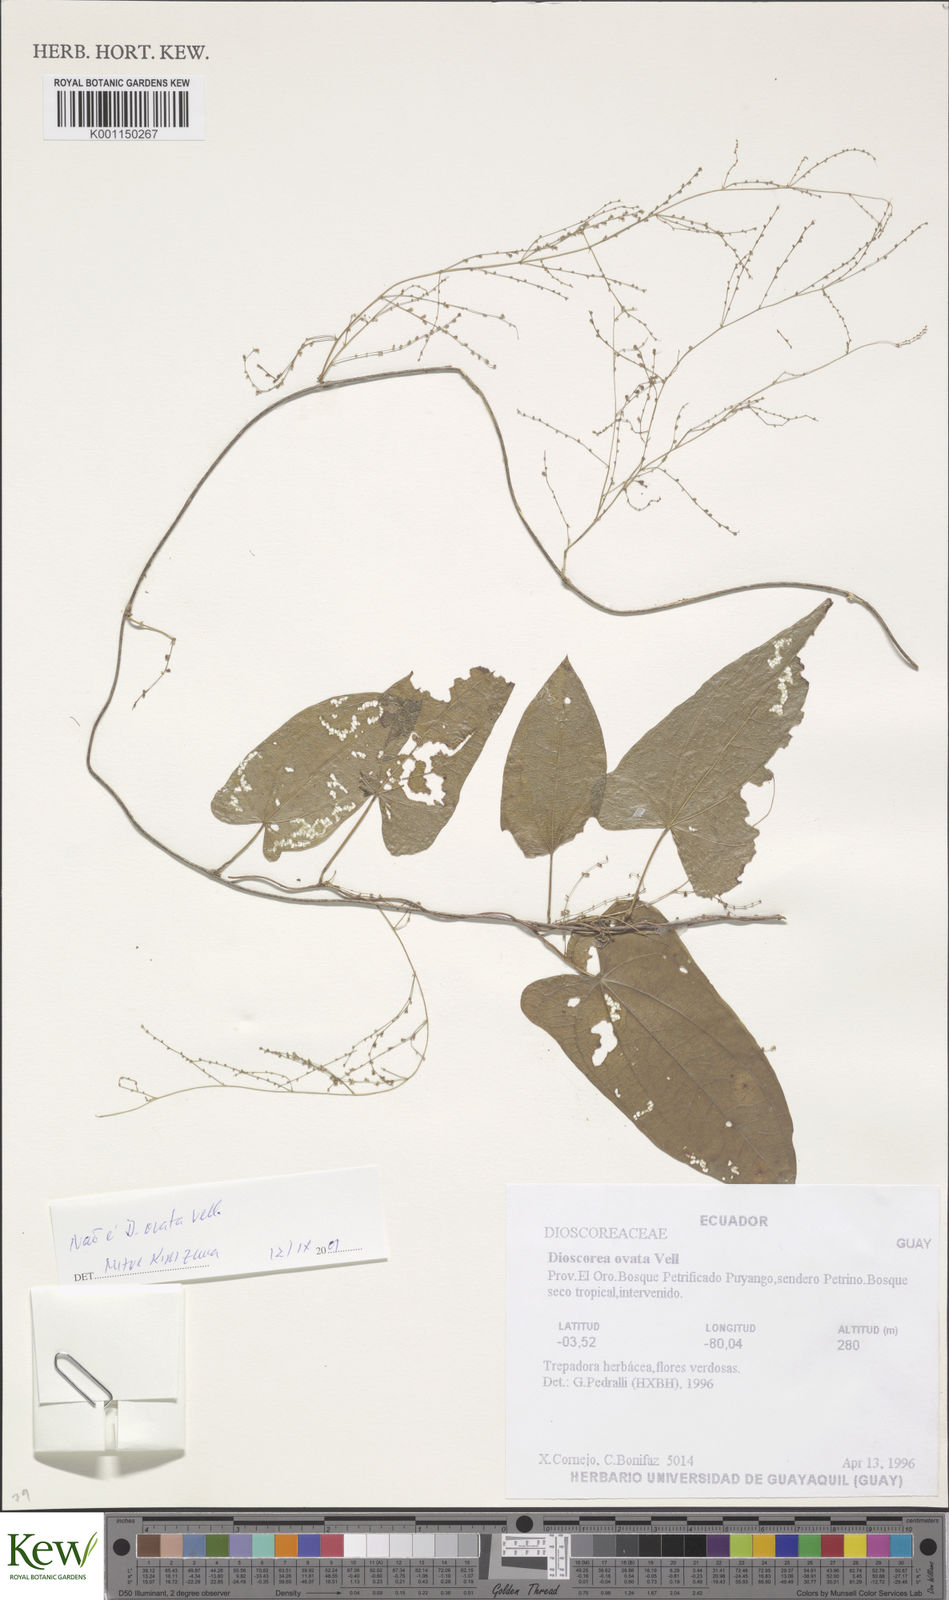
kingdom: Plantae
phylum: Tracheophyta
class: Liliopsida
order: Dioscoreales
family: Dioscoreaceae
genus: Dioscorea
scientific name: Dioscorea ovata
